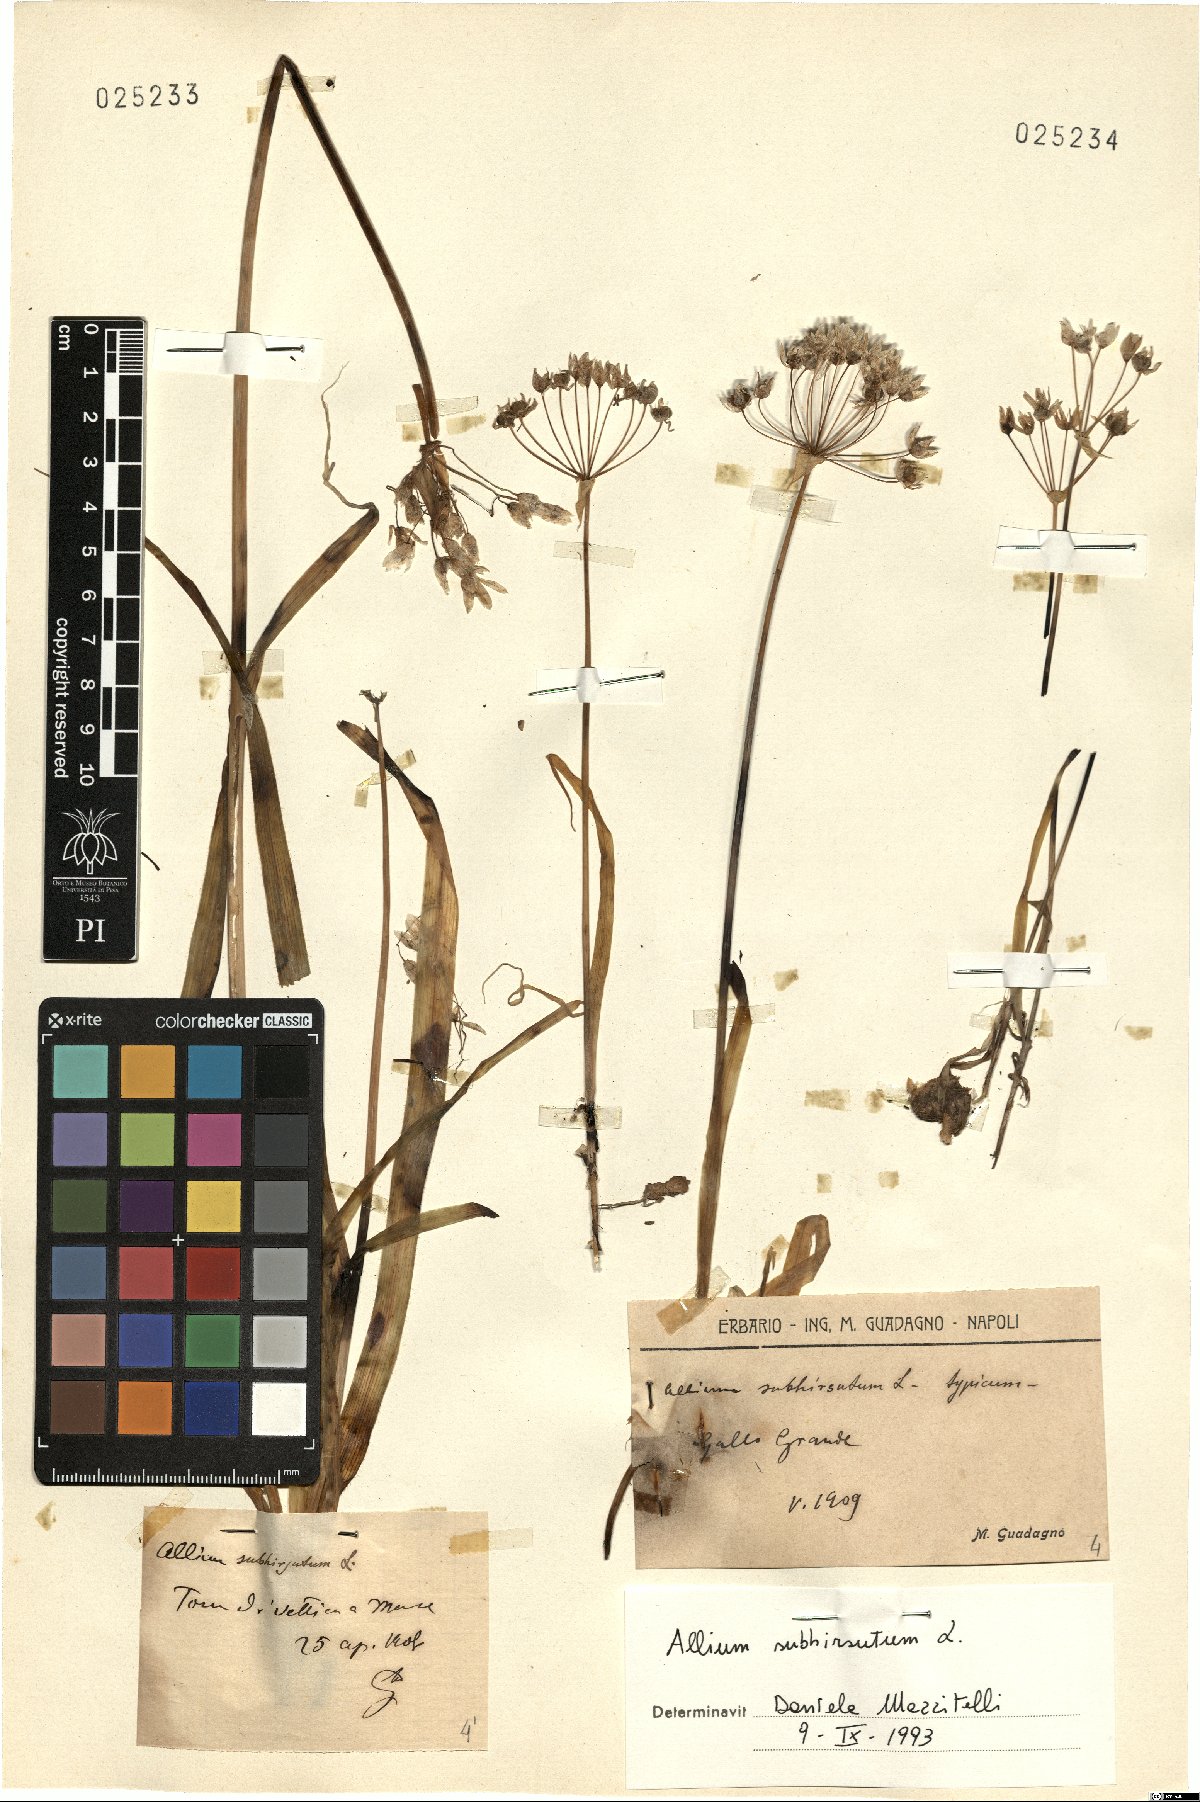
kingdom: Plantae
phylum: Tracheophyta
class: Liliopsida
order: Asparagales
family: Amaryllidaceae
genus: Allium
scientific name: Allium subhirsutum
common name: Hairy garlic
